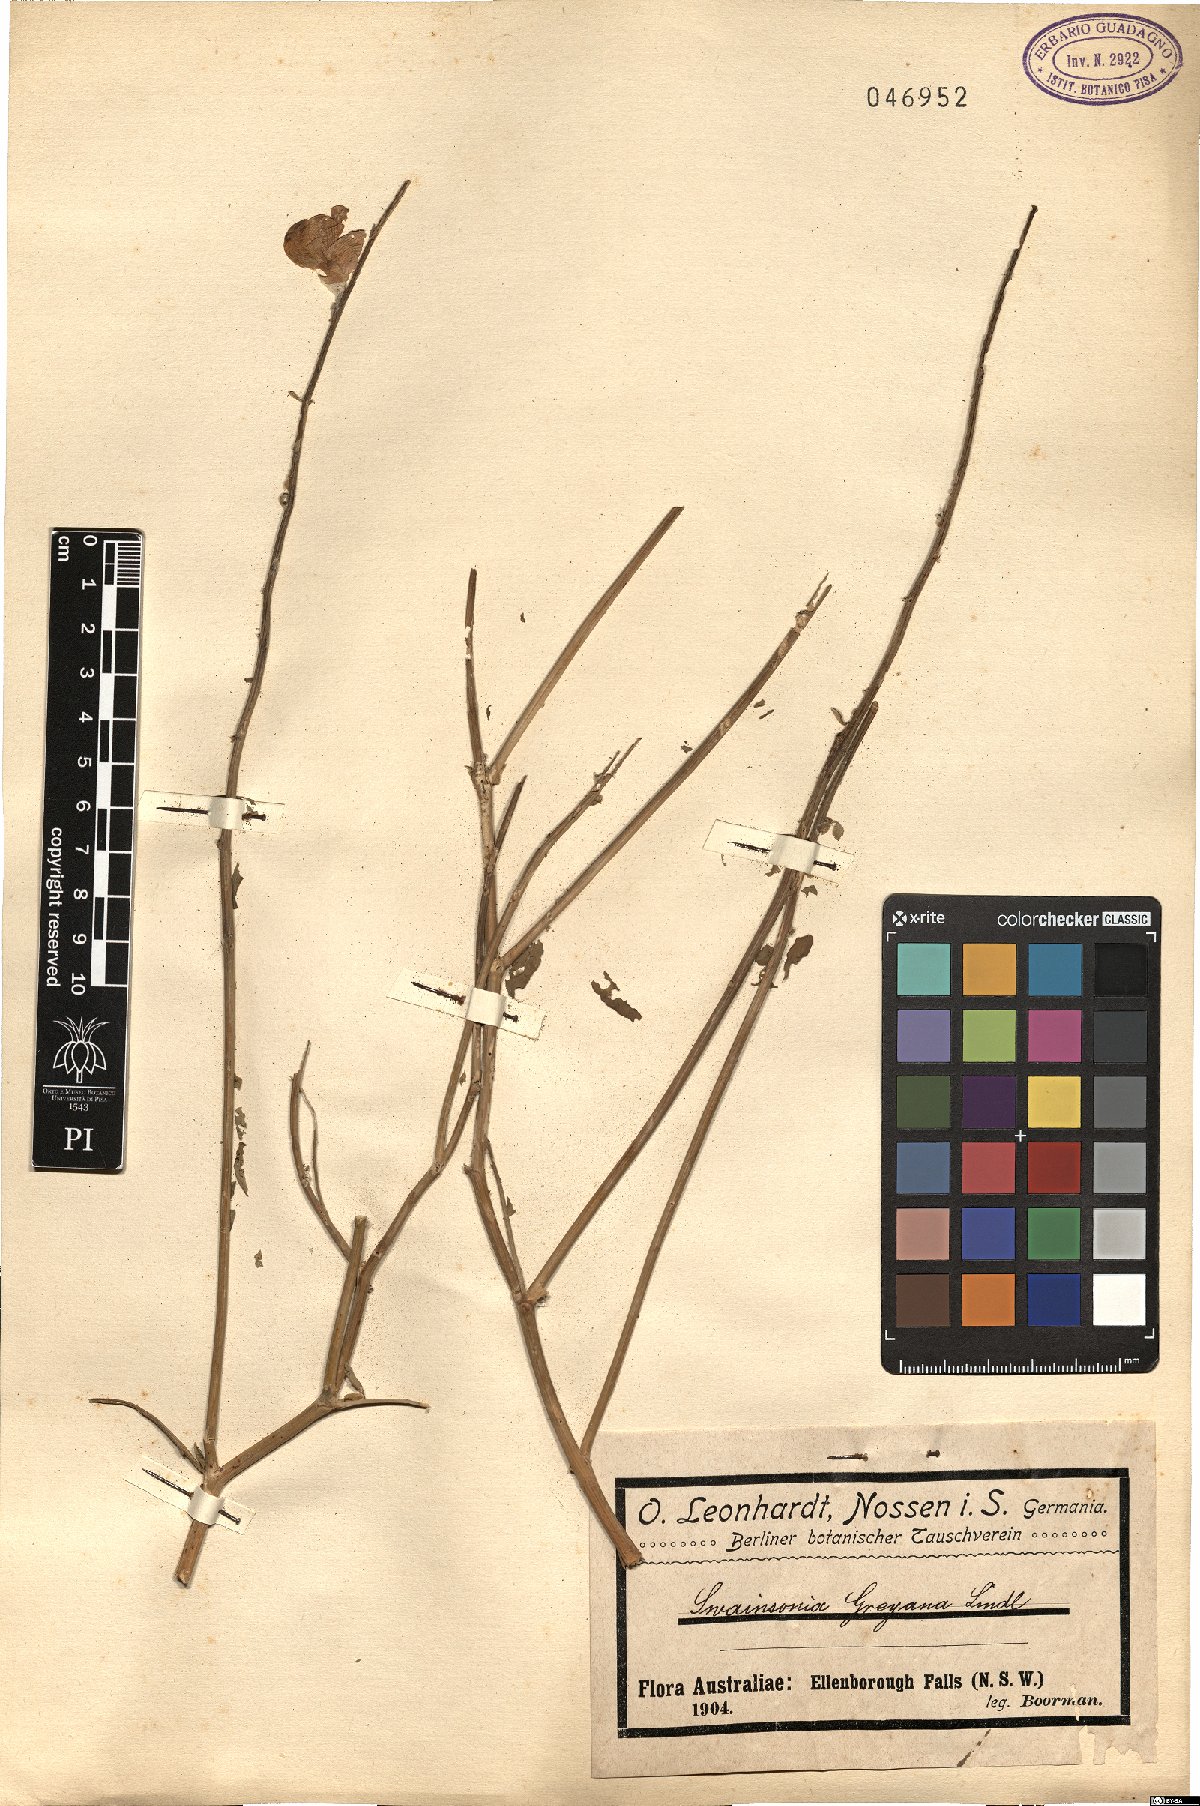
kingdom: Plantae
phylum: Tracheophyta
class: Magnoliopsida
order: Fabales
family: Fabaceae
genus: Swainsona
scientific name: Swainsona greyana
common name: Darling-pea
